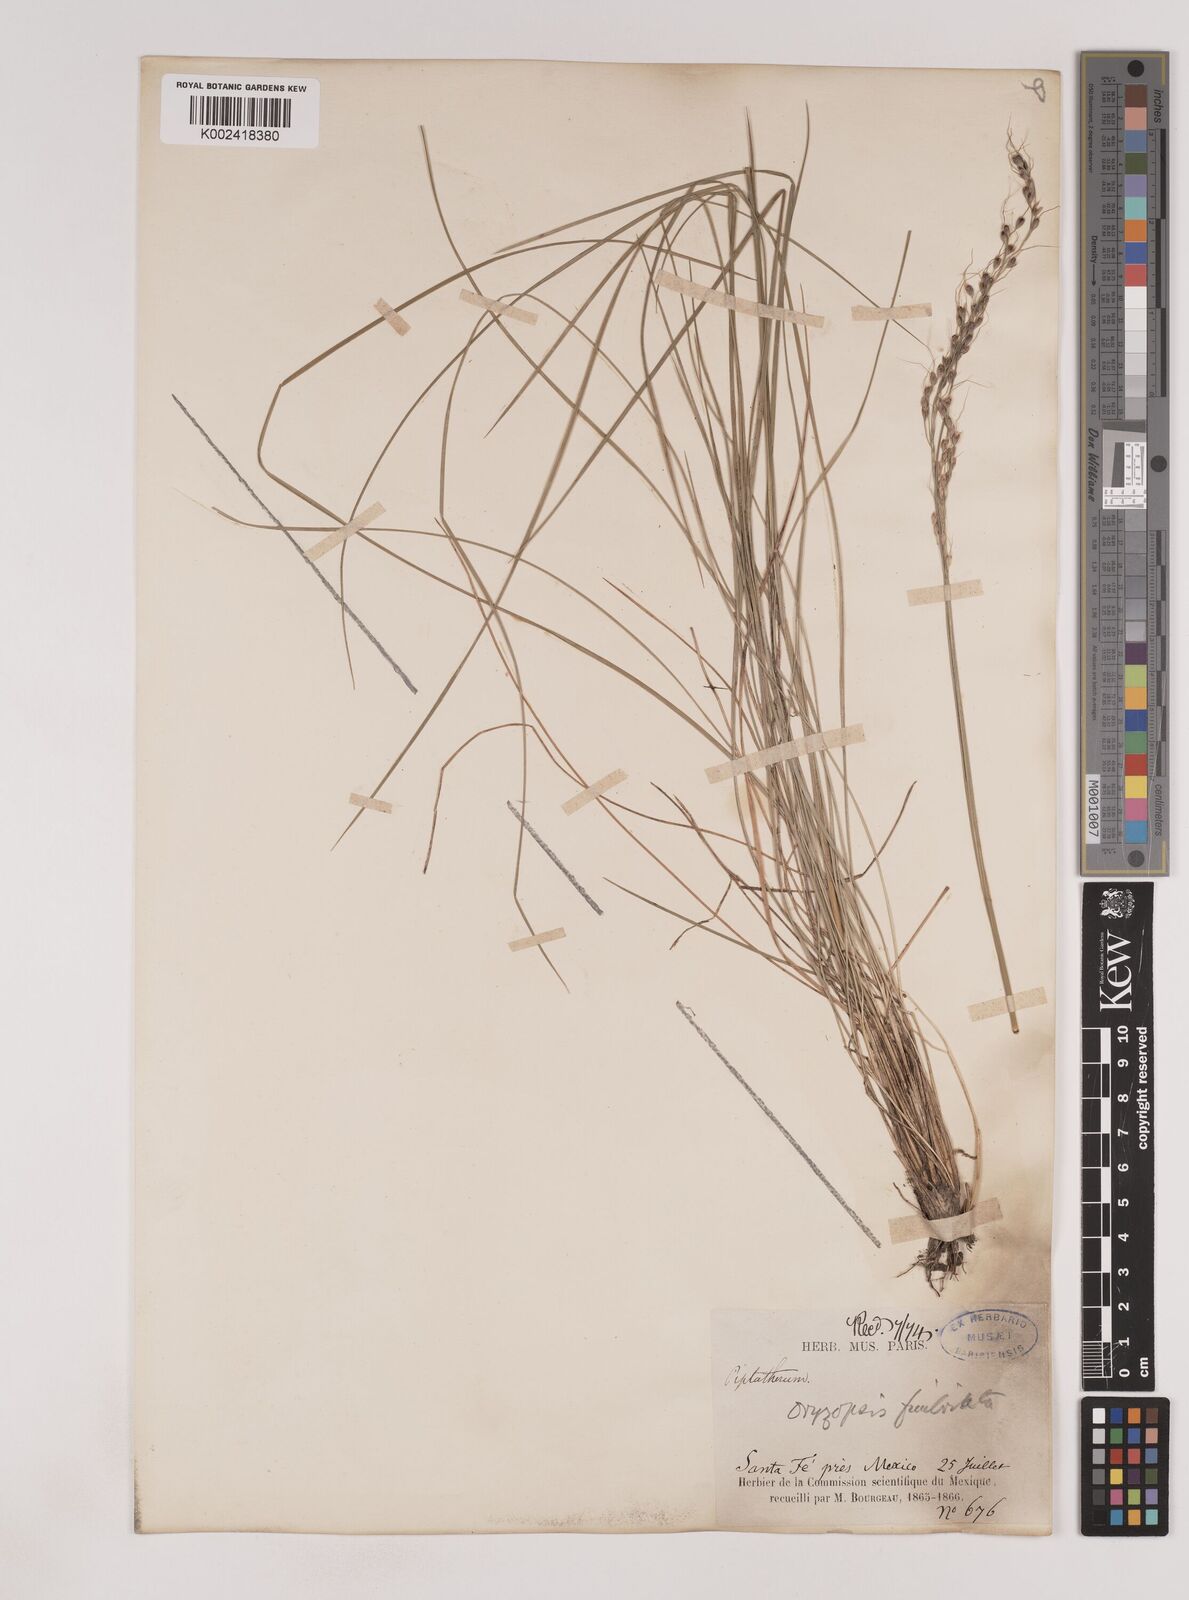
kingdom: Plantae
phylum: Tracheophyta
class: Liliopsida
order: Poales
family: Poaceae
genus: Piptochaetium
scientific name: Piptochaetium fimbriatum
